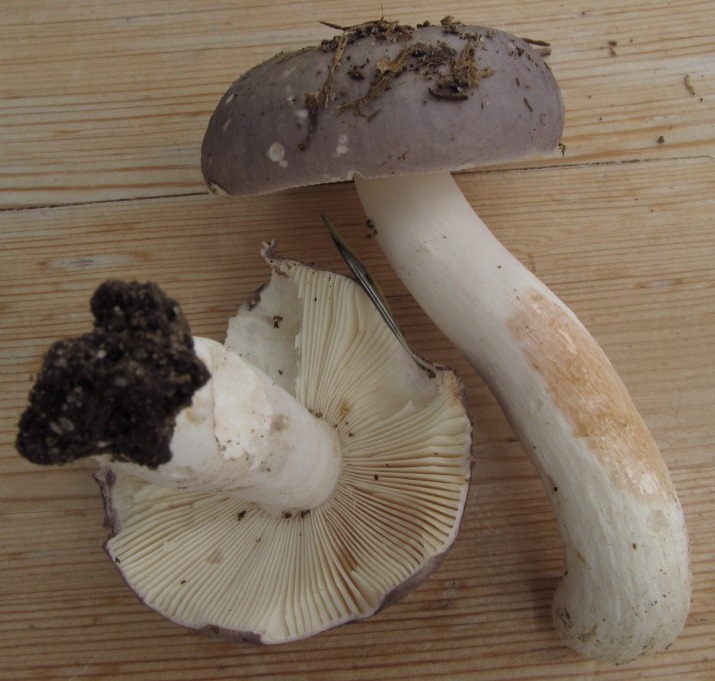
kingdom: Fungi
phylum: Basidiomycota
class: Agaricomycetes
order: Russulales
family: Russulaceae
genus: Russula
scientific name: Russula ionochlora
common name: violetgrøn skørhat
